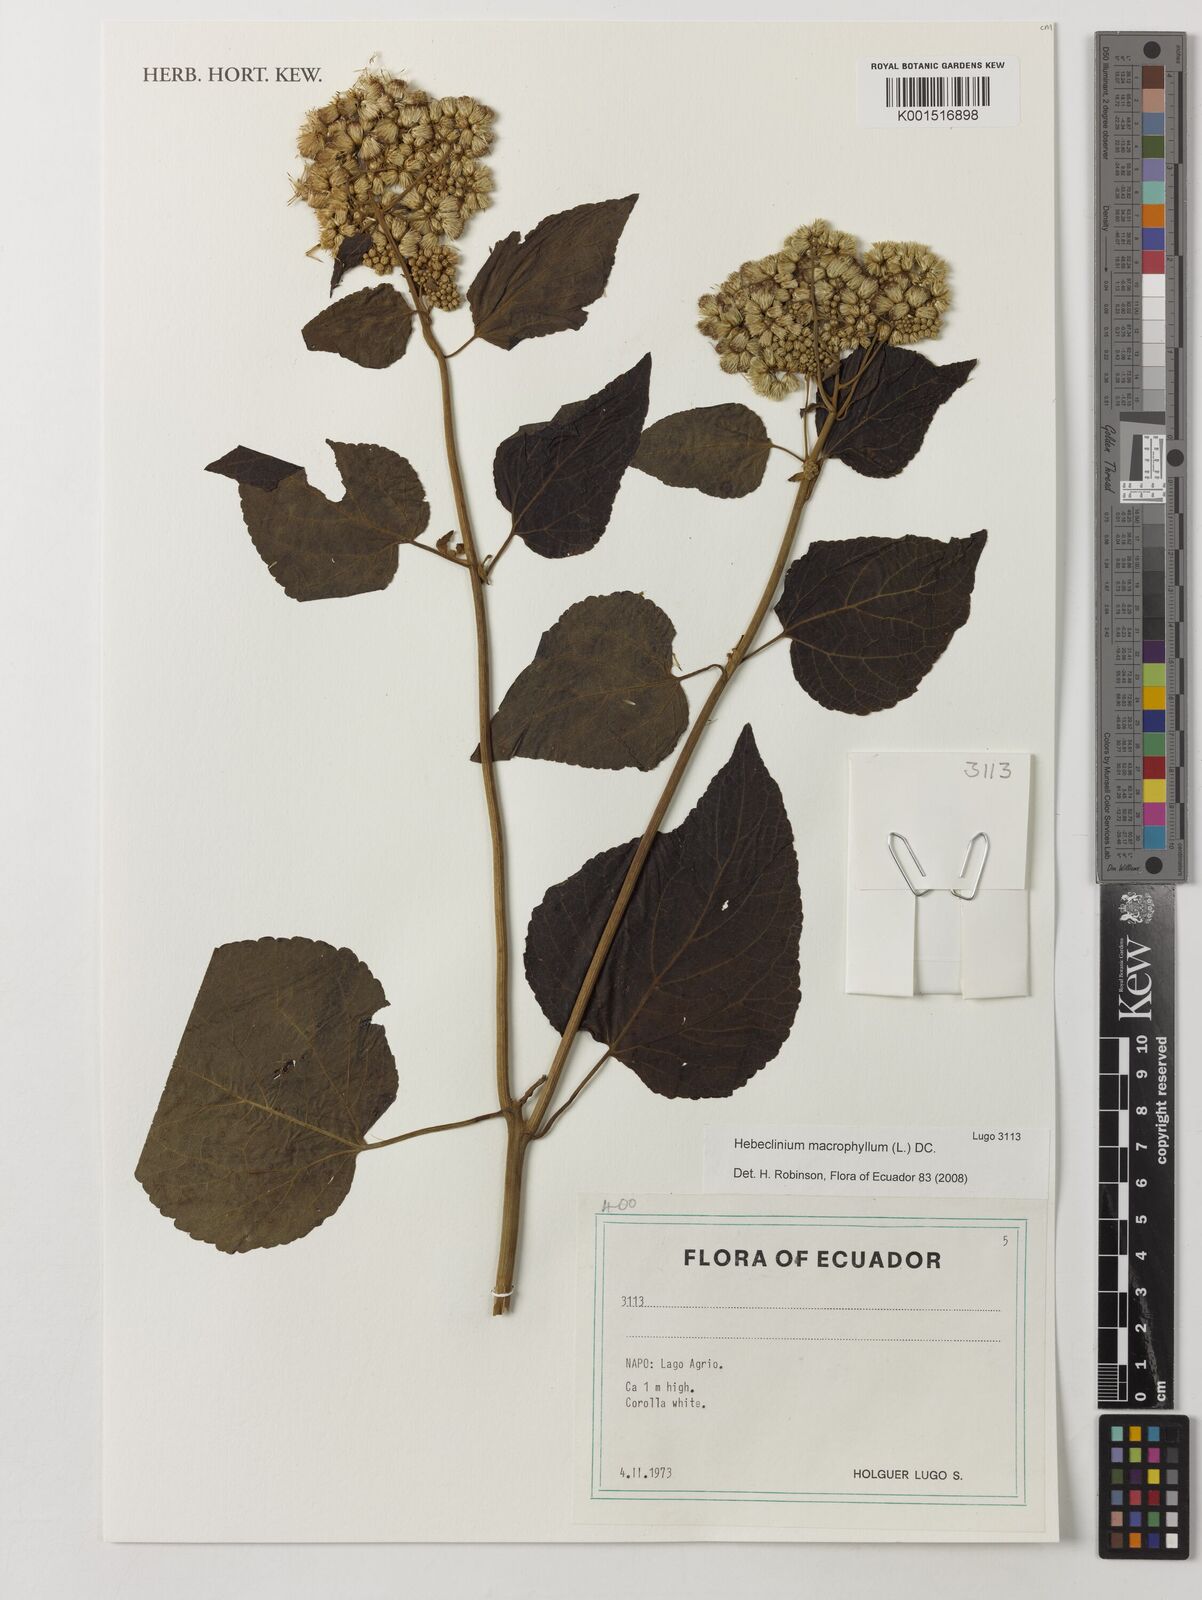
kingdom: Plantae
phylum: Tracheophyta
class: Magnoliopsida
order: Asterales
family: Asteraceae
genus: Hebeclinium
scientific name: Hebeclinium macrophyllum
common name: Largeleaf thoroughwort
